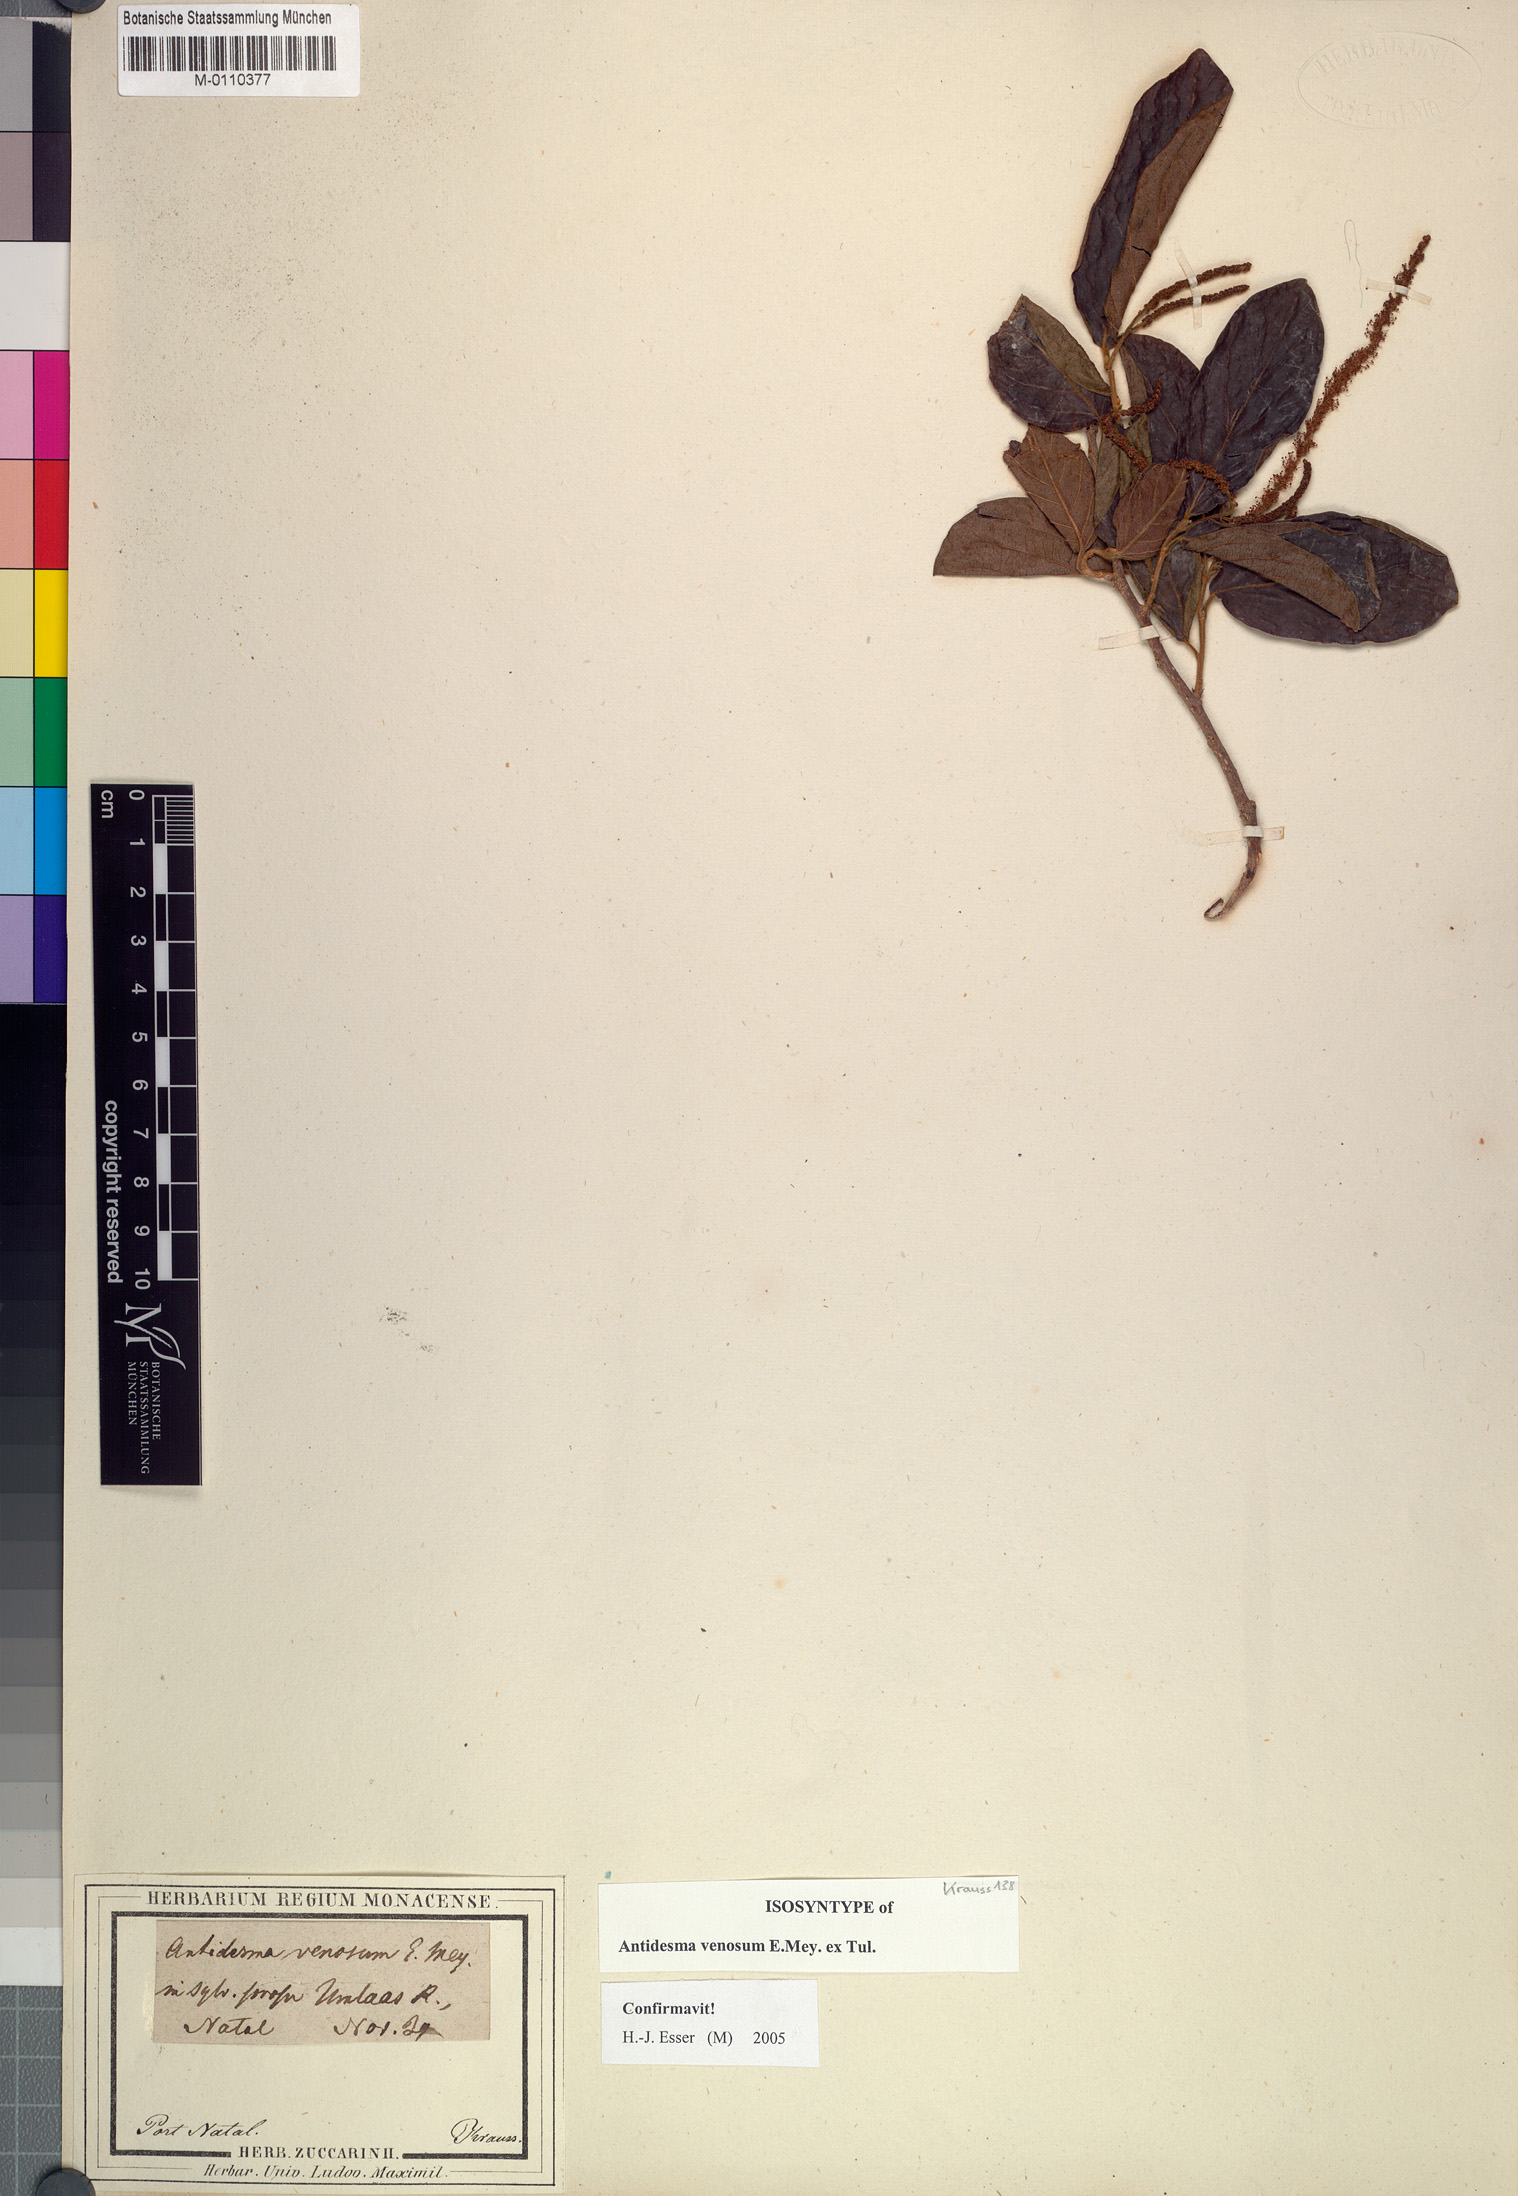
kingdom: Plantae
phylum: Tracheophyta
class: Magnoliopsida
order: Malpighiales
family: Phyllanthaceae
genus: Antidesma
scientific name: Antidesma venosum
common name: Tassel-berry
